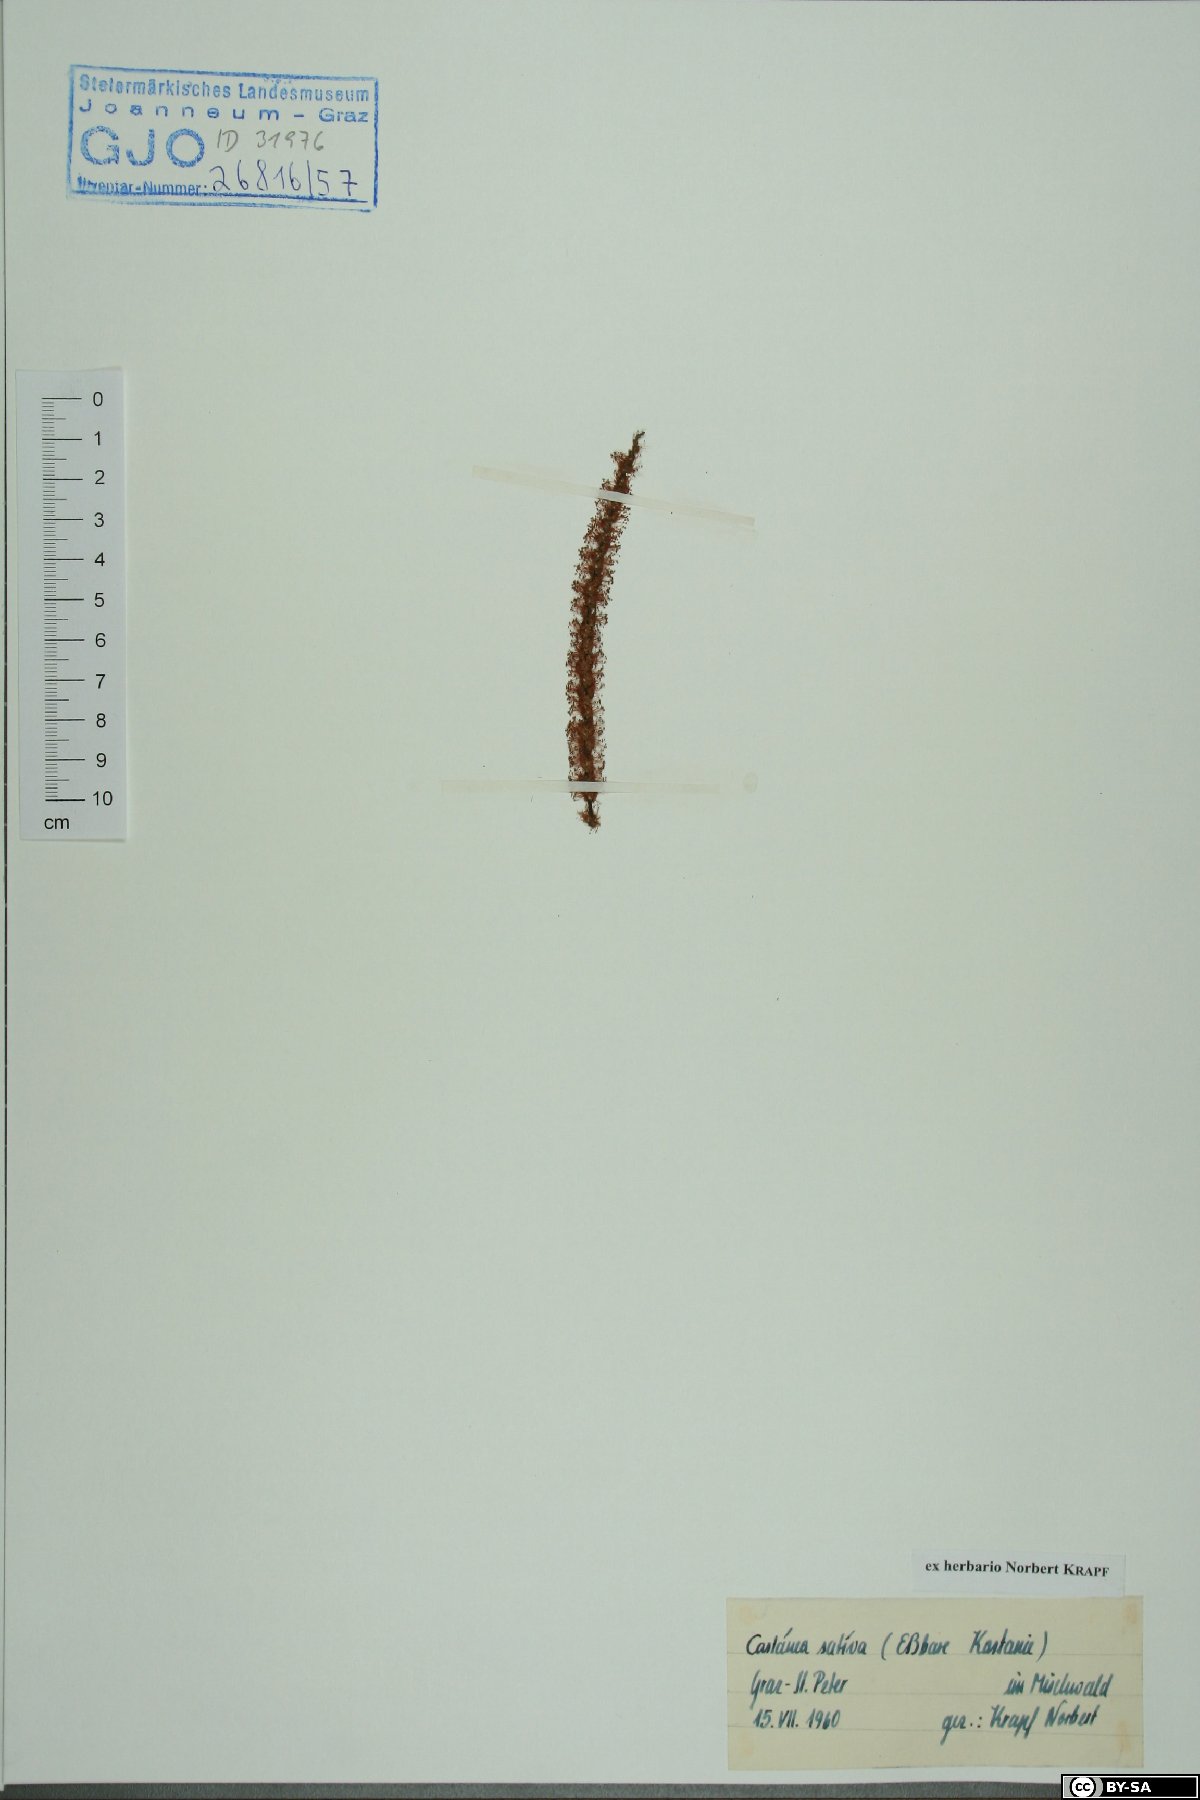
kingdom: Plantae
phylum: Tracheophyta
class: Magnoliopsida
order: Fagales
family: Fagaceae
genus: Castanea
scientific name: Castanea sativa
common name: Sweet chestnut
